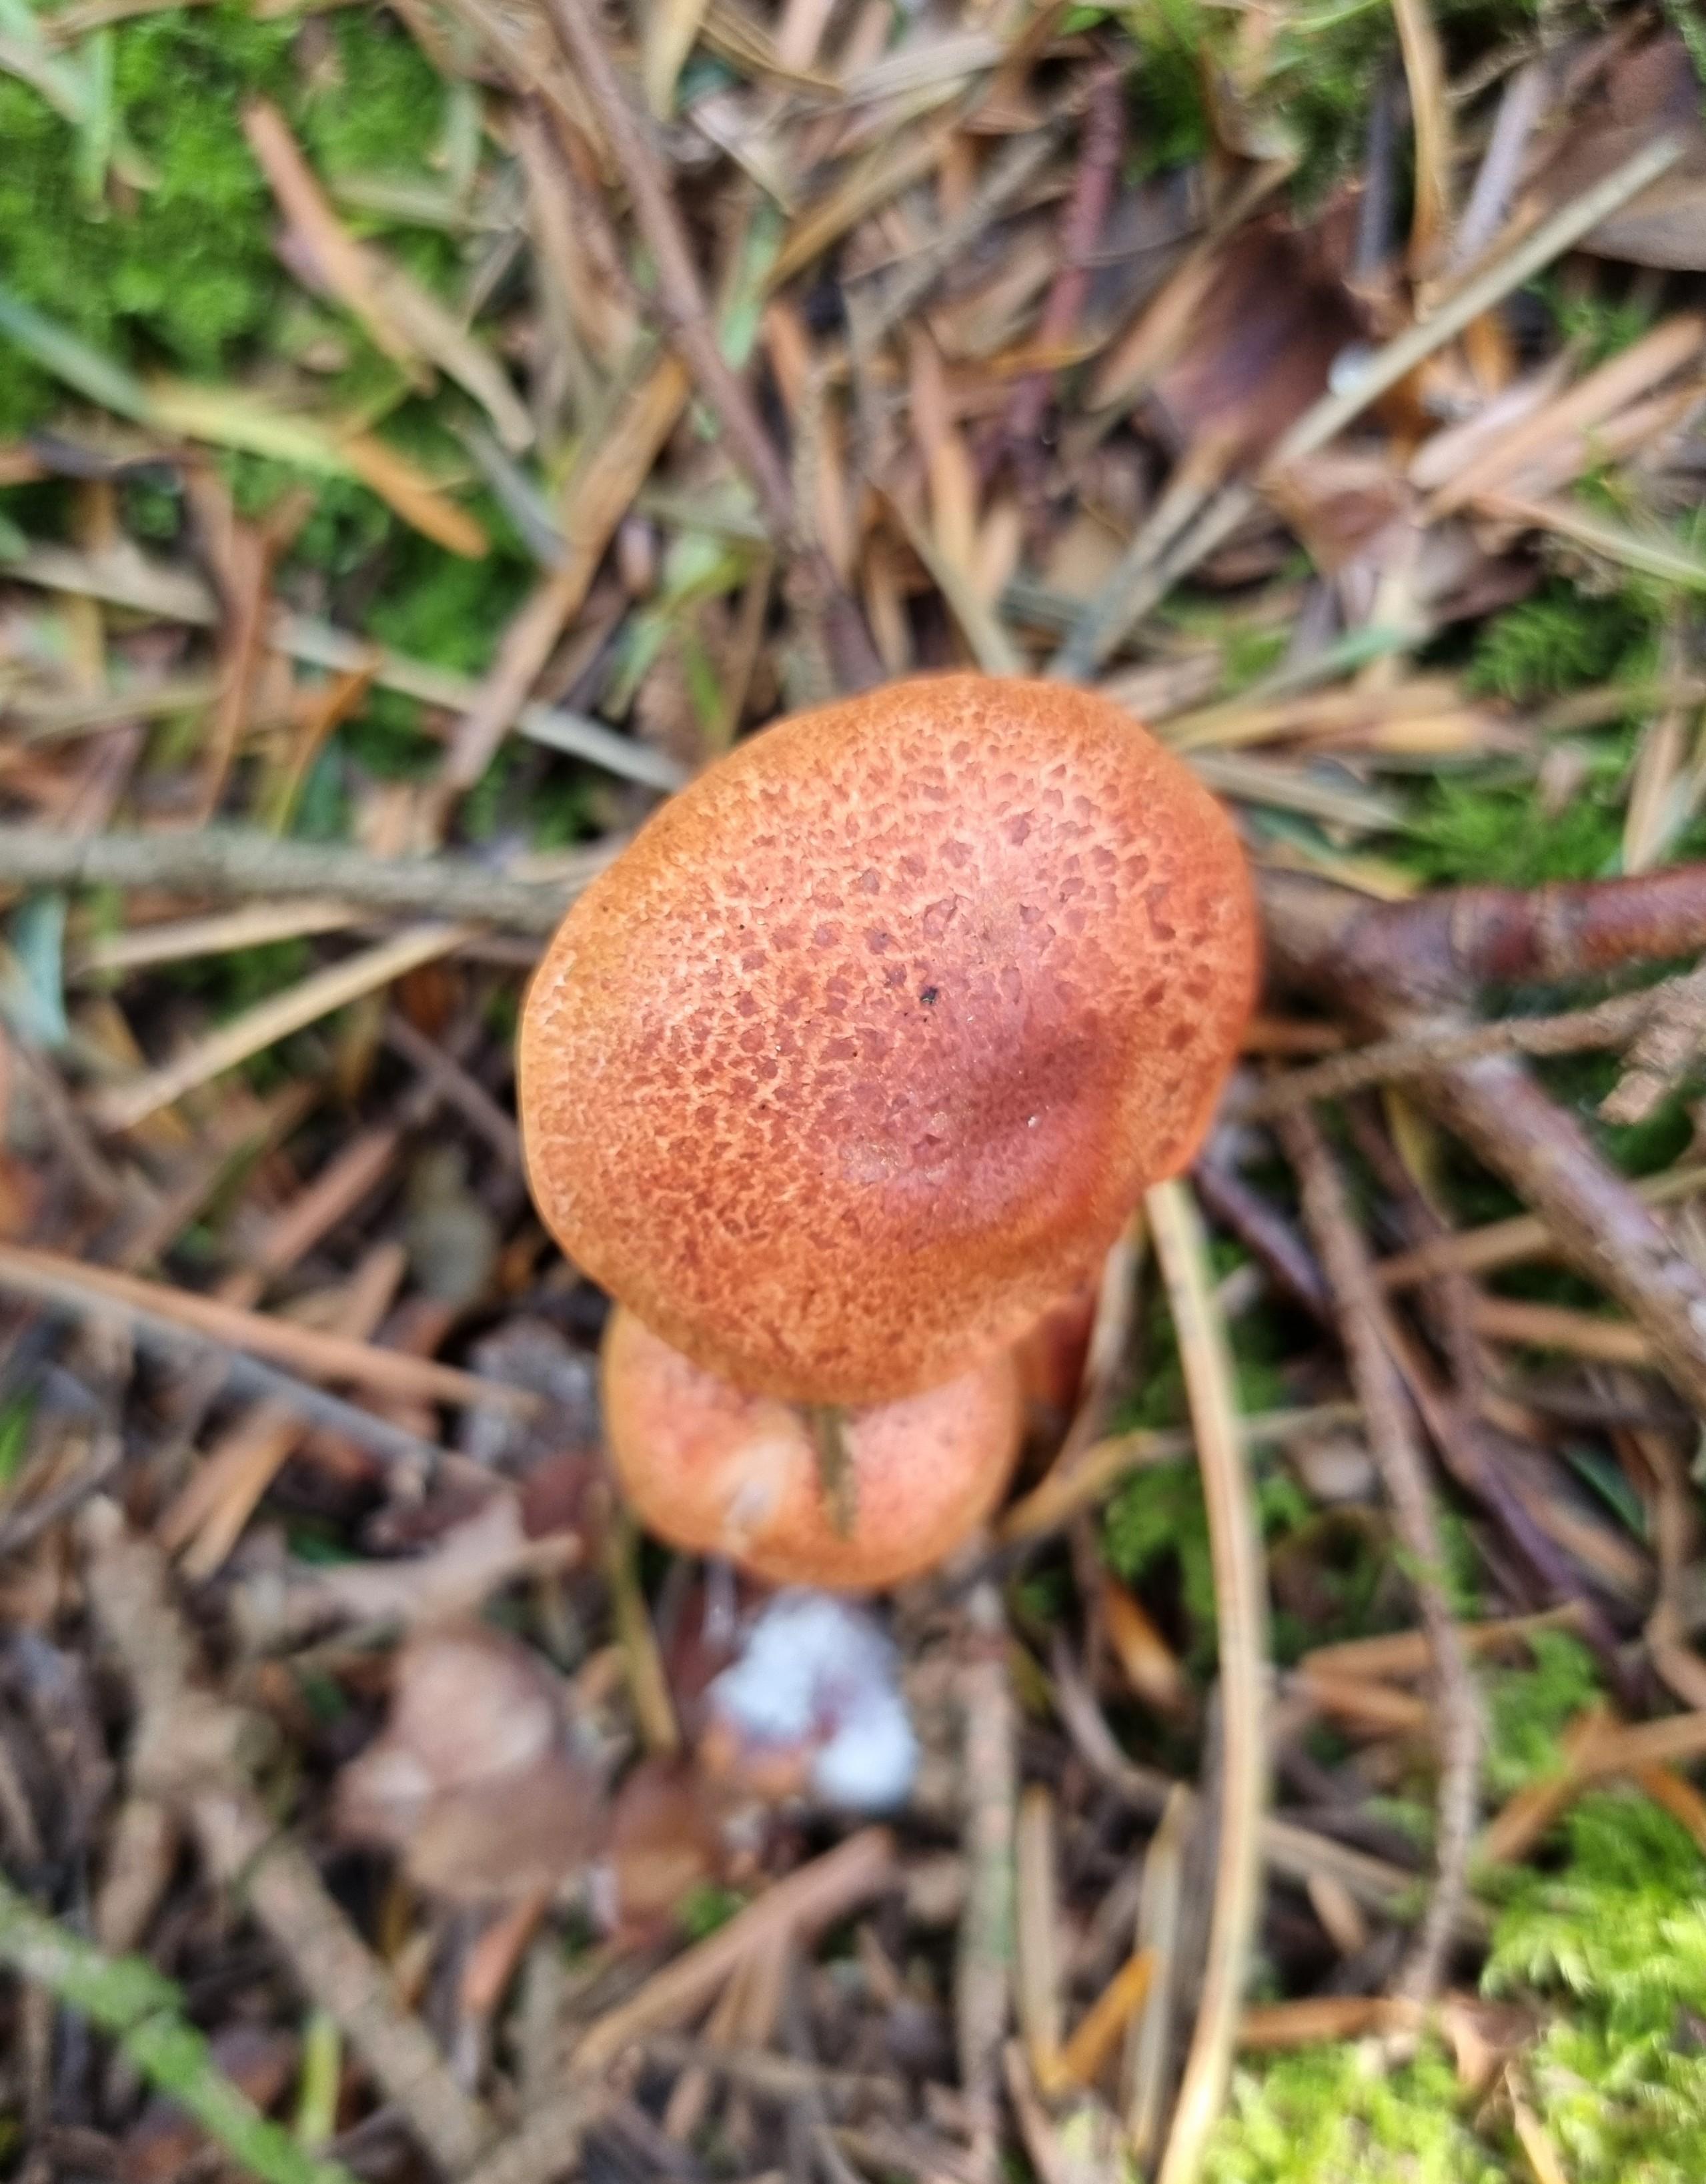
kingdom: Fungi
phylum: Basidiomycota
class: Agaricomycetes
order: Agaricales
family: Cortinariaceae
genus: Cortinarius
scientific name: Cortinarius bolaris
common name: cinnoberskællet slørhat
